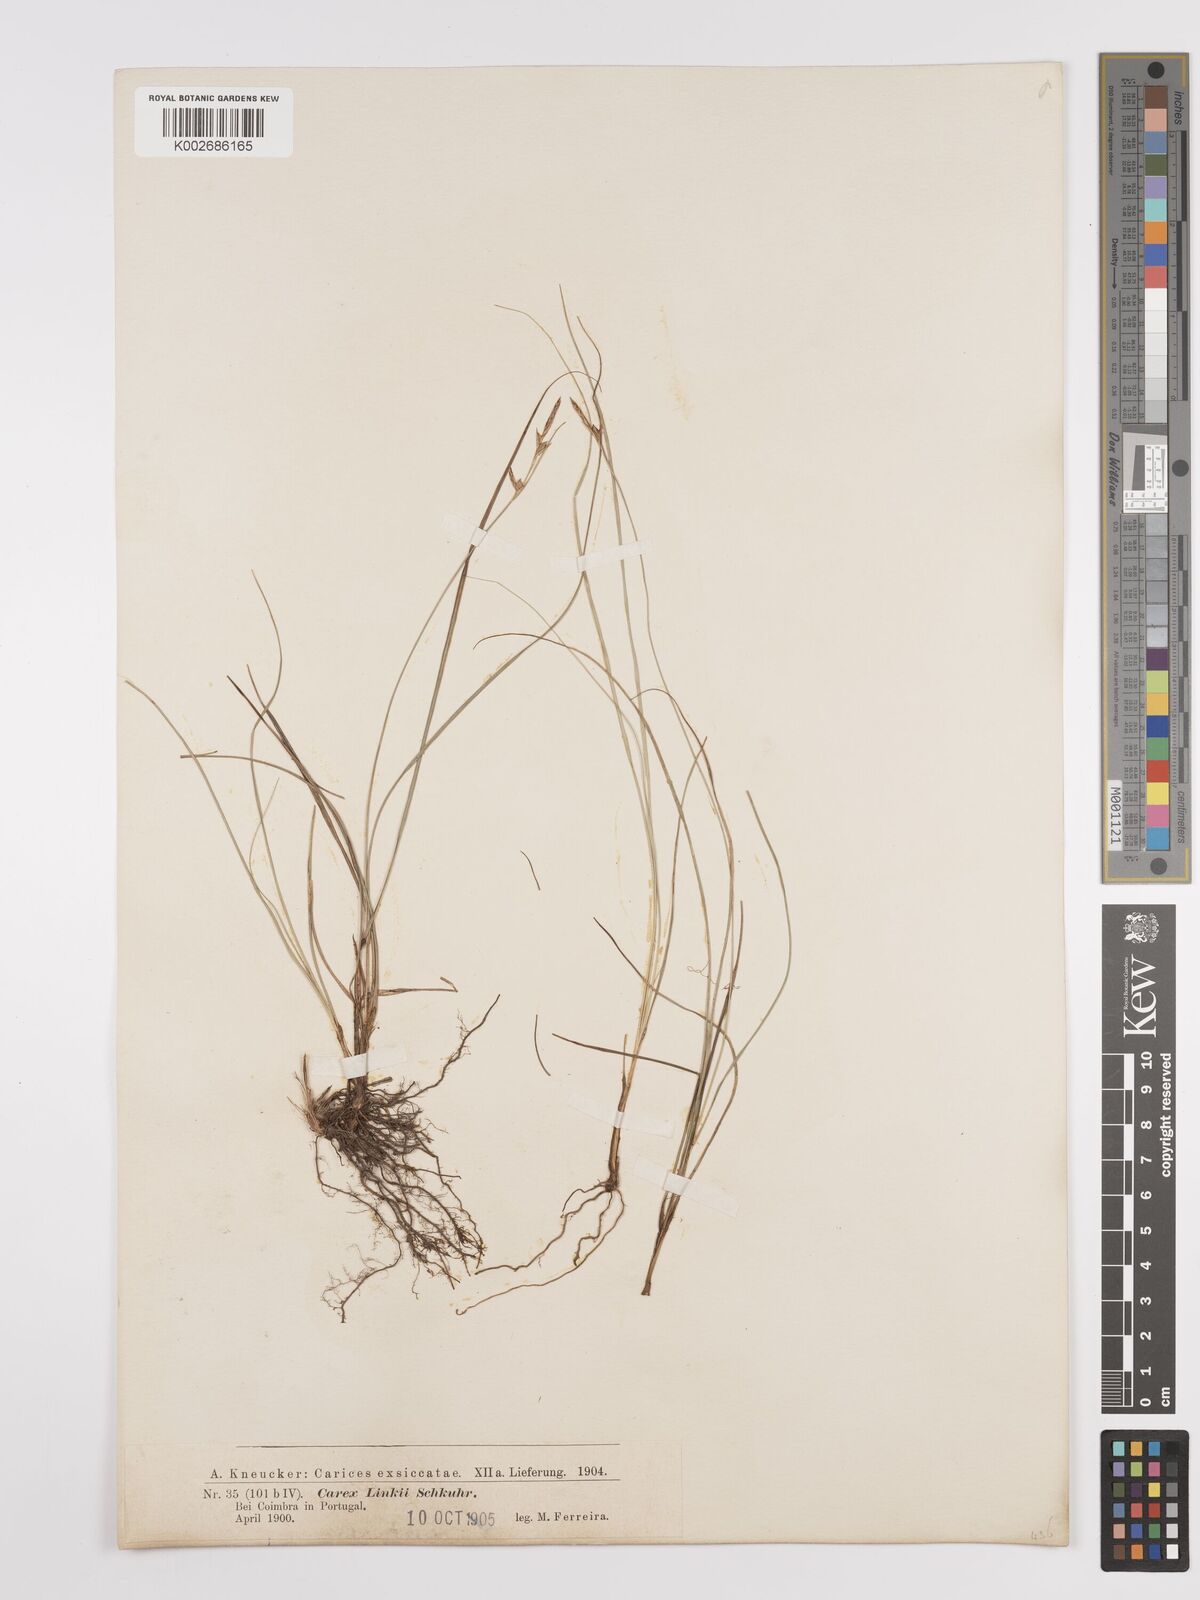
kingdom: Plantae
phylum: Tracheophyta
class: Liliopsida
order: Poales
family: Cyperaceae
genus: Carex
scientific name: Carex distachya
